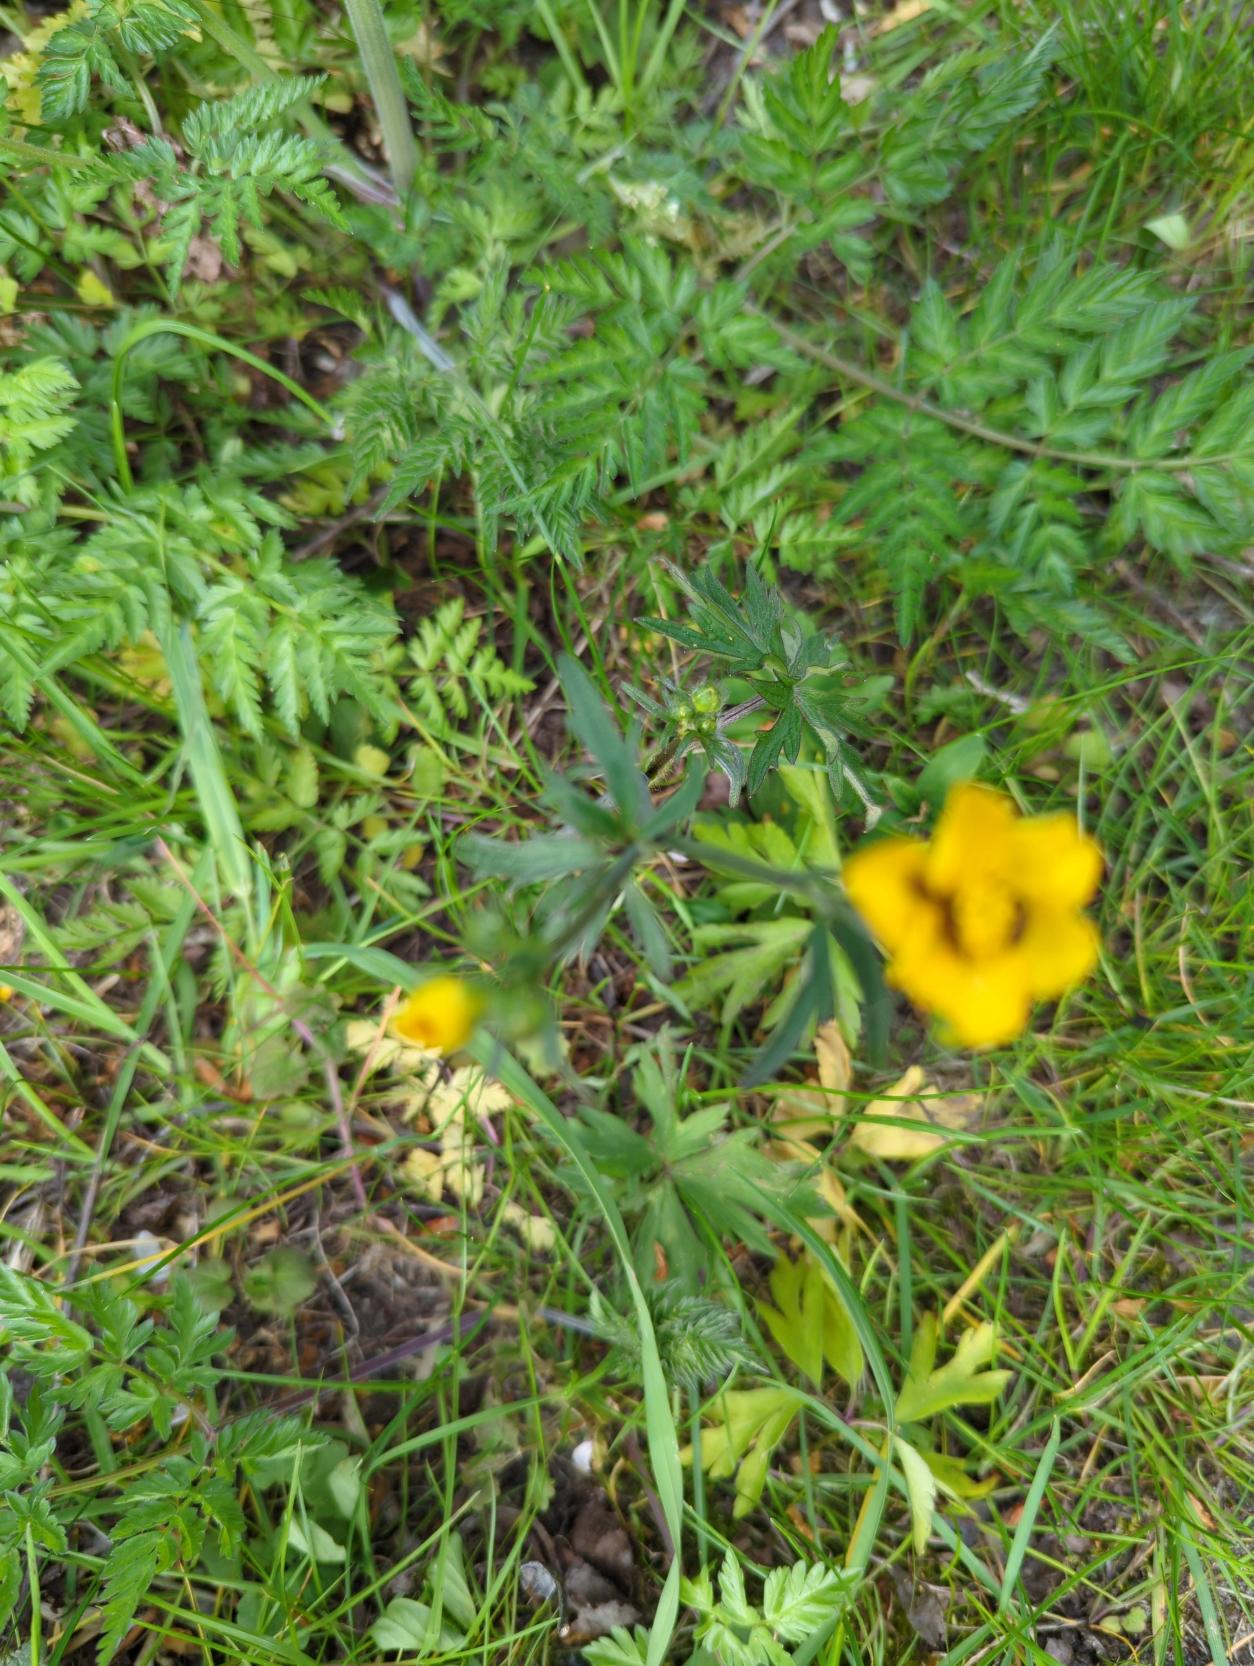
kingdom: Plantae
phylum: Tracheophyta
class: Magnoliopsida
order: Ranunculales
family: Ranunculaceae
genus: Ranunculus
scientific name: Ranunculus acris
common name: Bidende ranunkel
